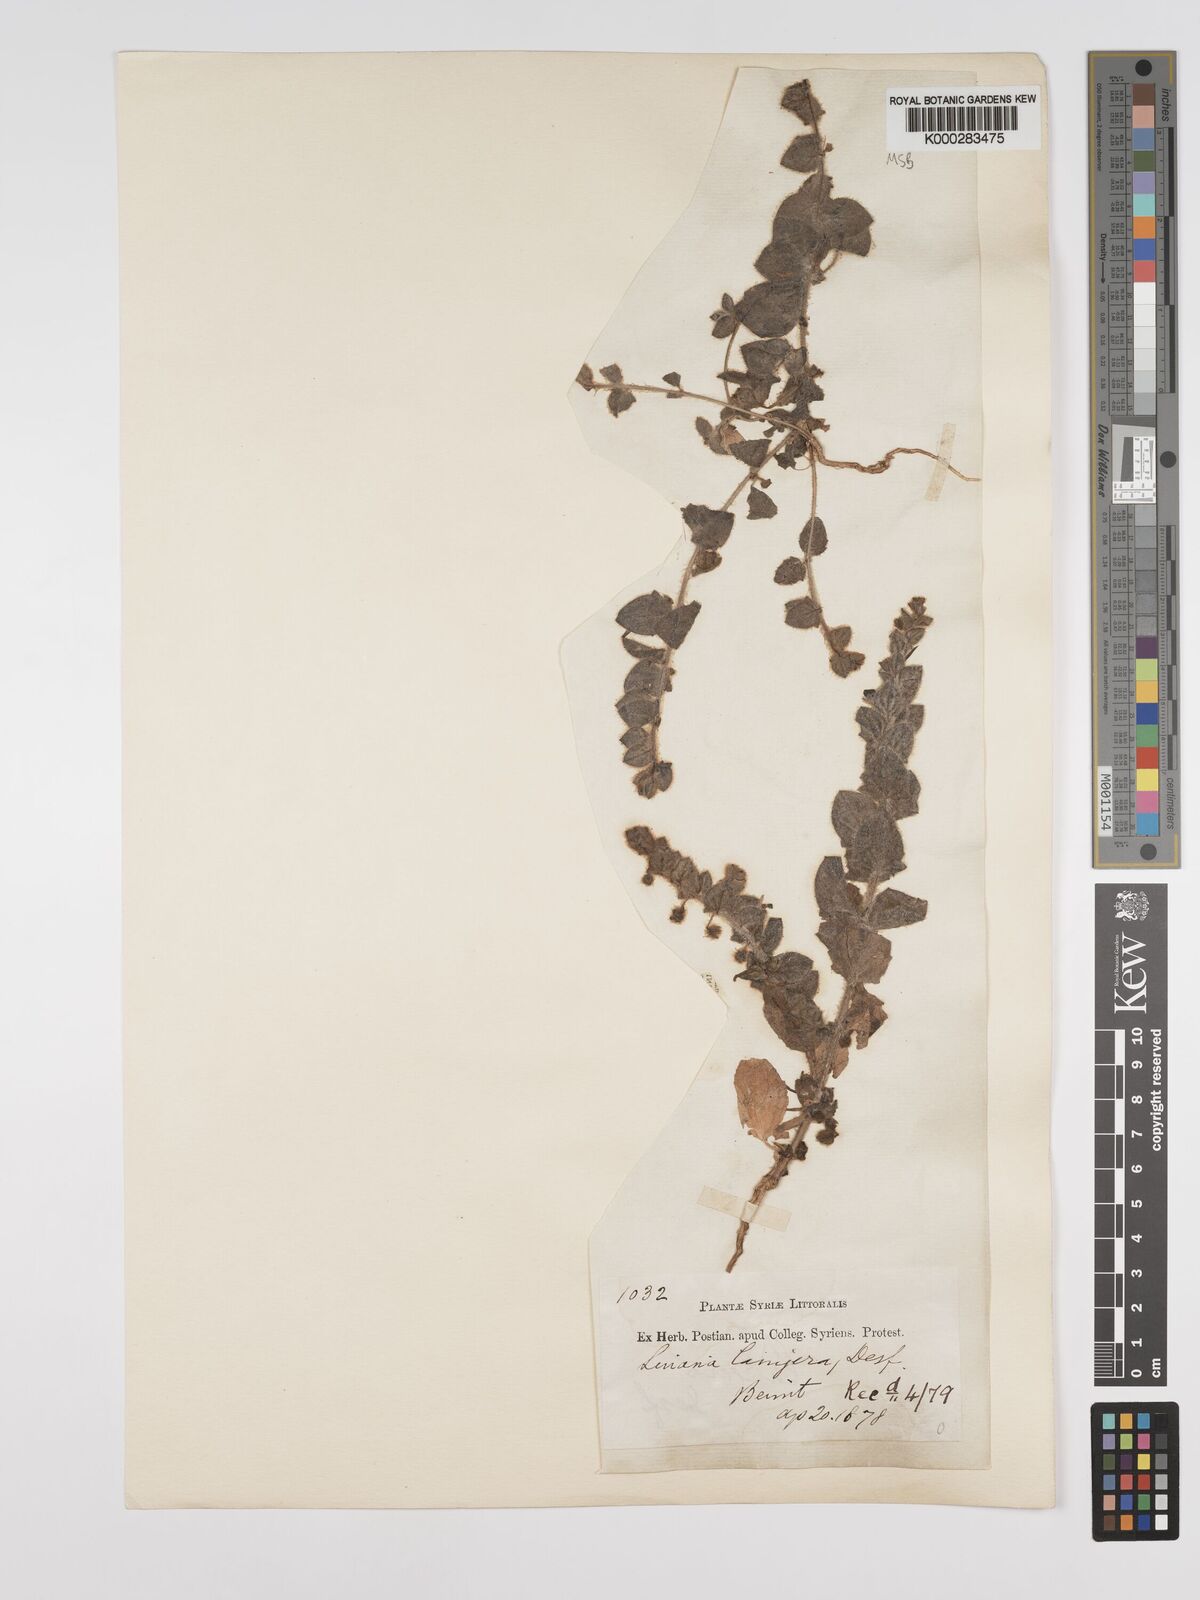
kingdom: Plantae
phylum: Tracheophyta
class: Magnoliopsida
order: Lamiales
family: Plantaginaceae
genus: Kickxia
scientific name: Kickxia lanigera
